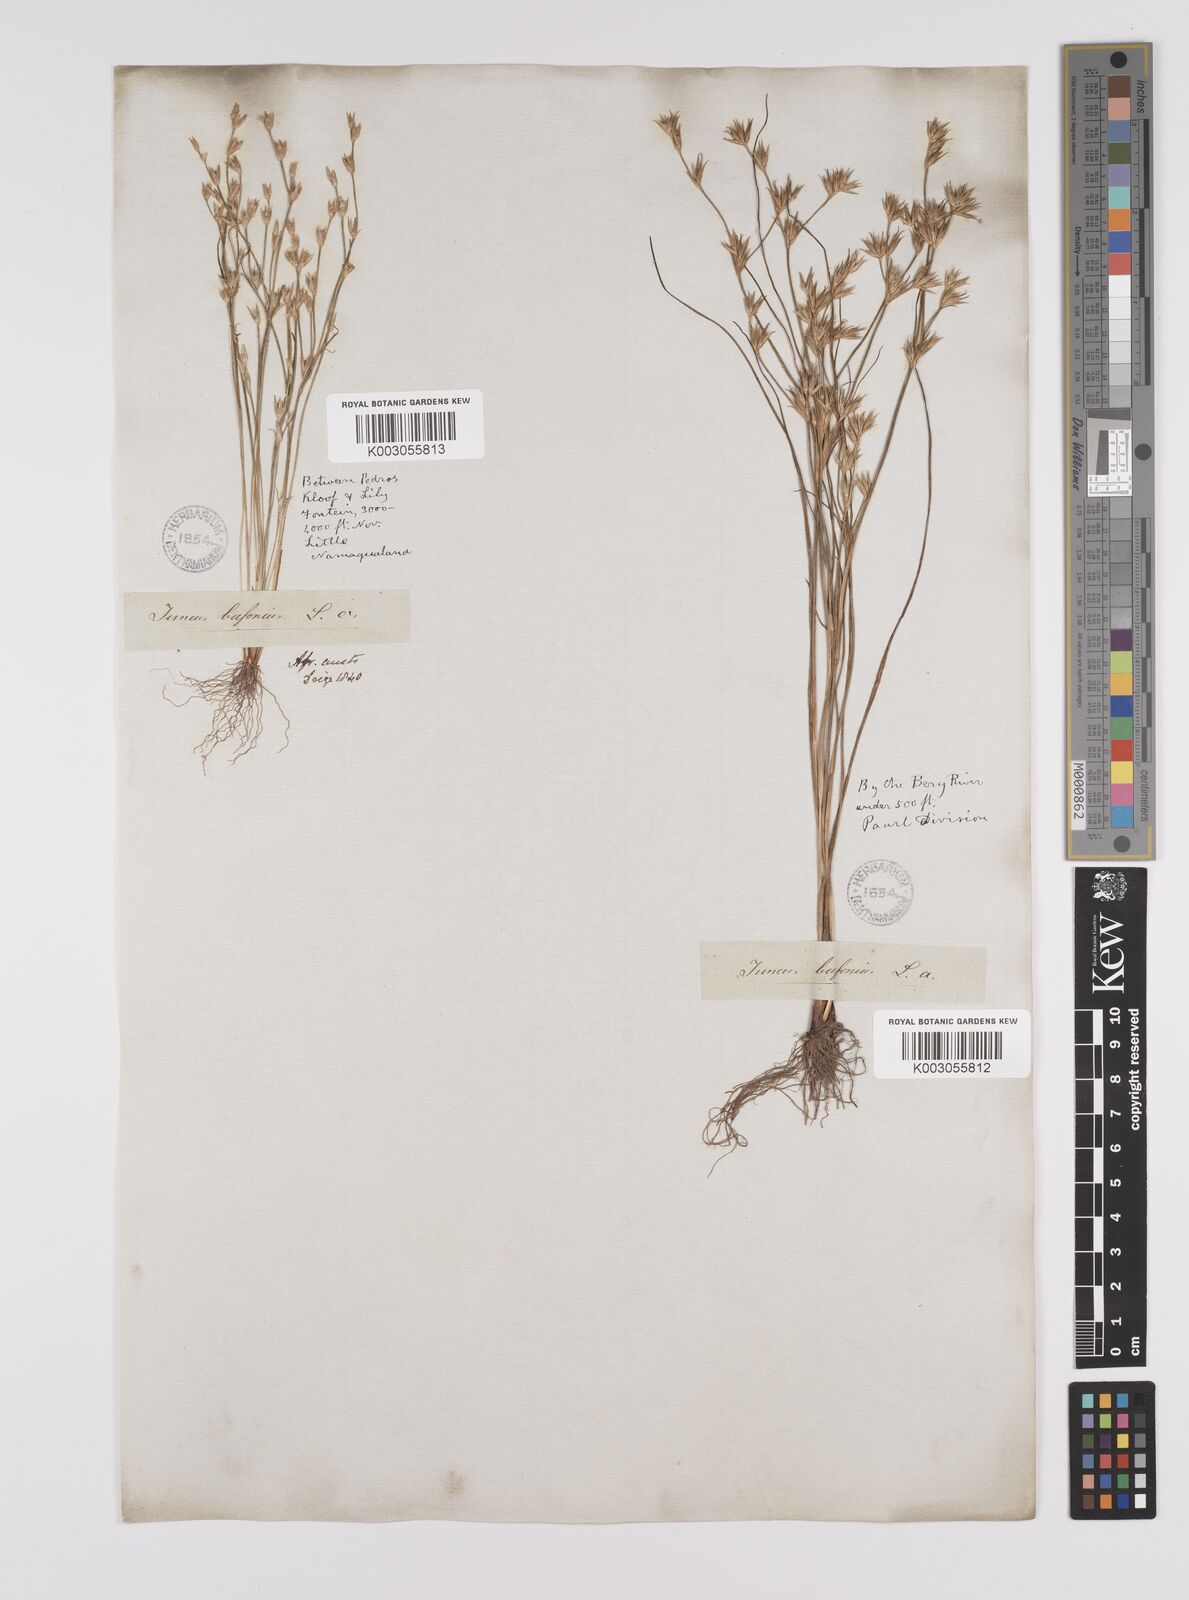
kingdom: Plantae
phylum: Tracheophyta
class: Liliopsida
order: Poales
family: Juncaceae
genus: Juncus
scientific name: Juncus bufonius
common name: Toad rush
